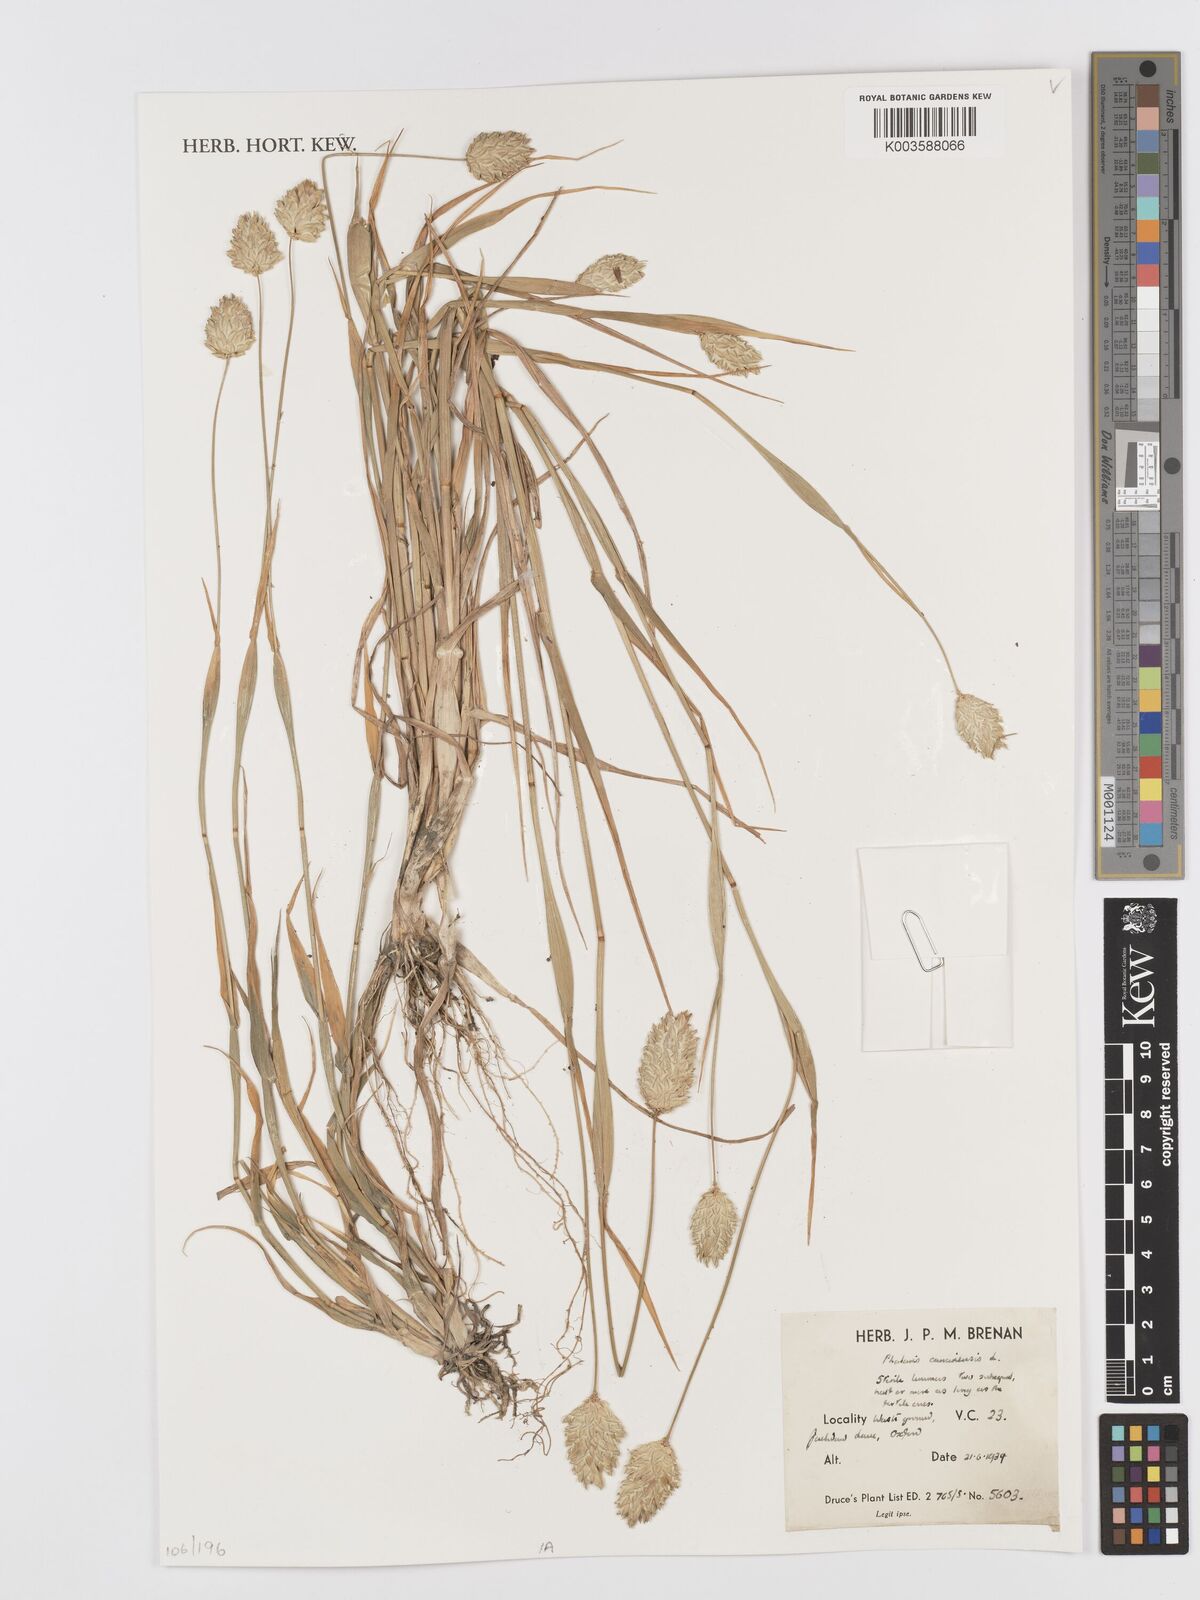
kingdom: Plantae
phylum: Tracheophyta
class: Liliopsida
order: Poales
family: Poaceae
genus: Phalaris
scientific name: Phalaris canariensis
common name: Annual canarygrass
